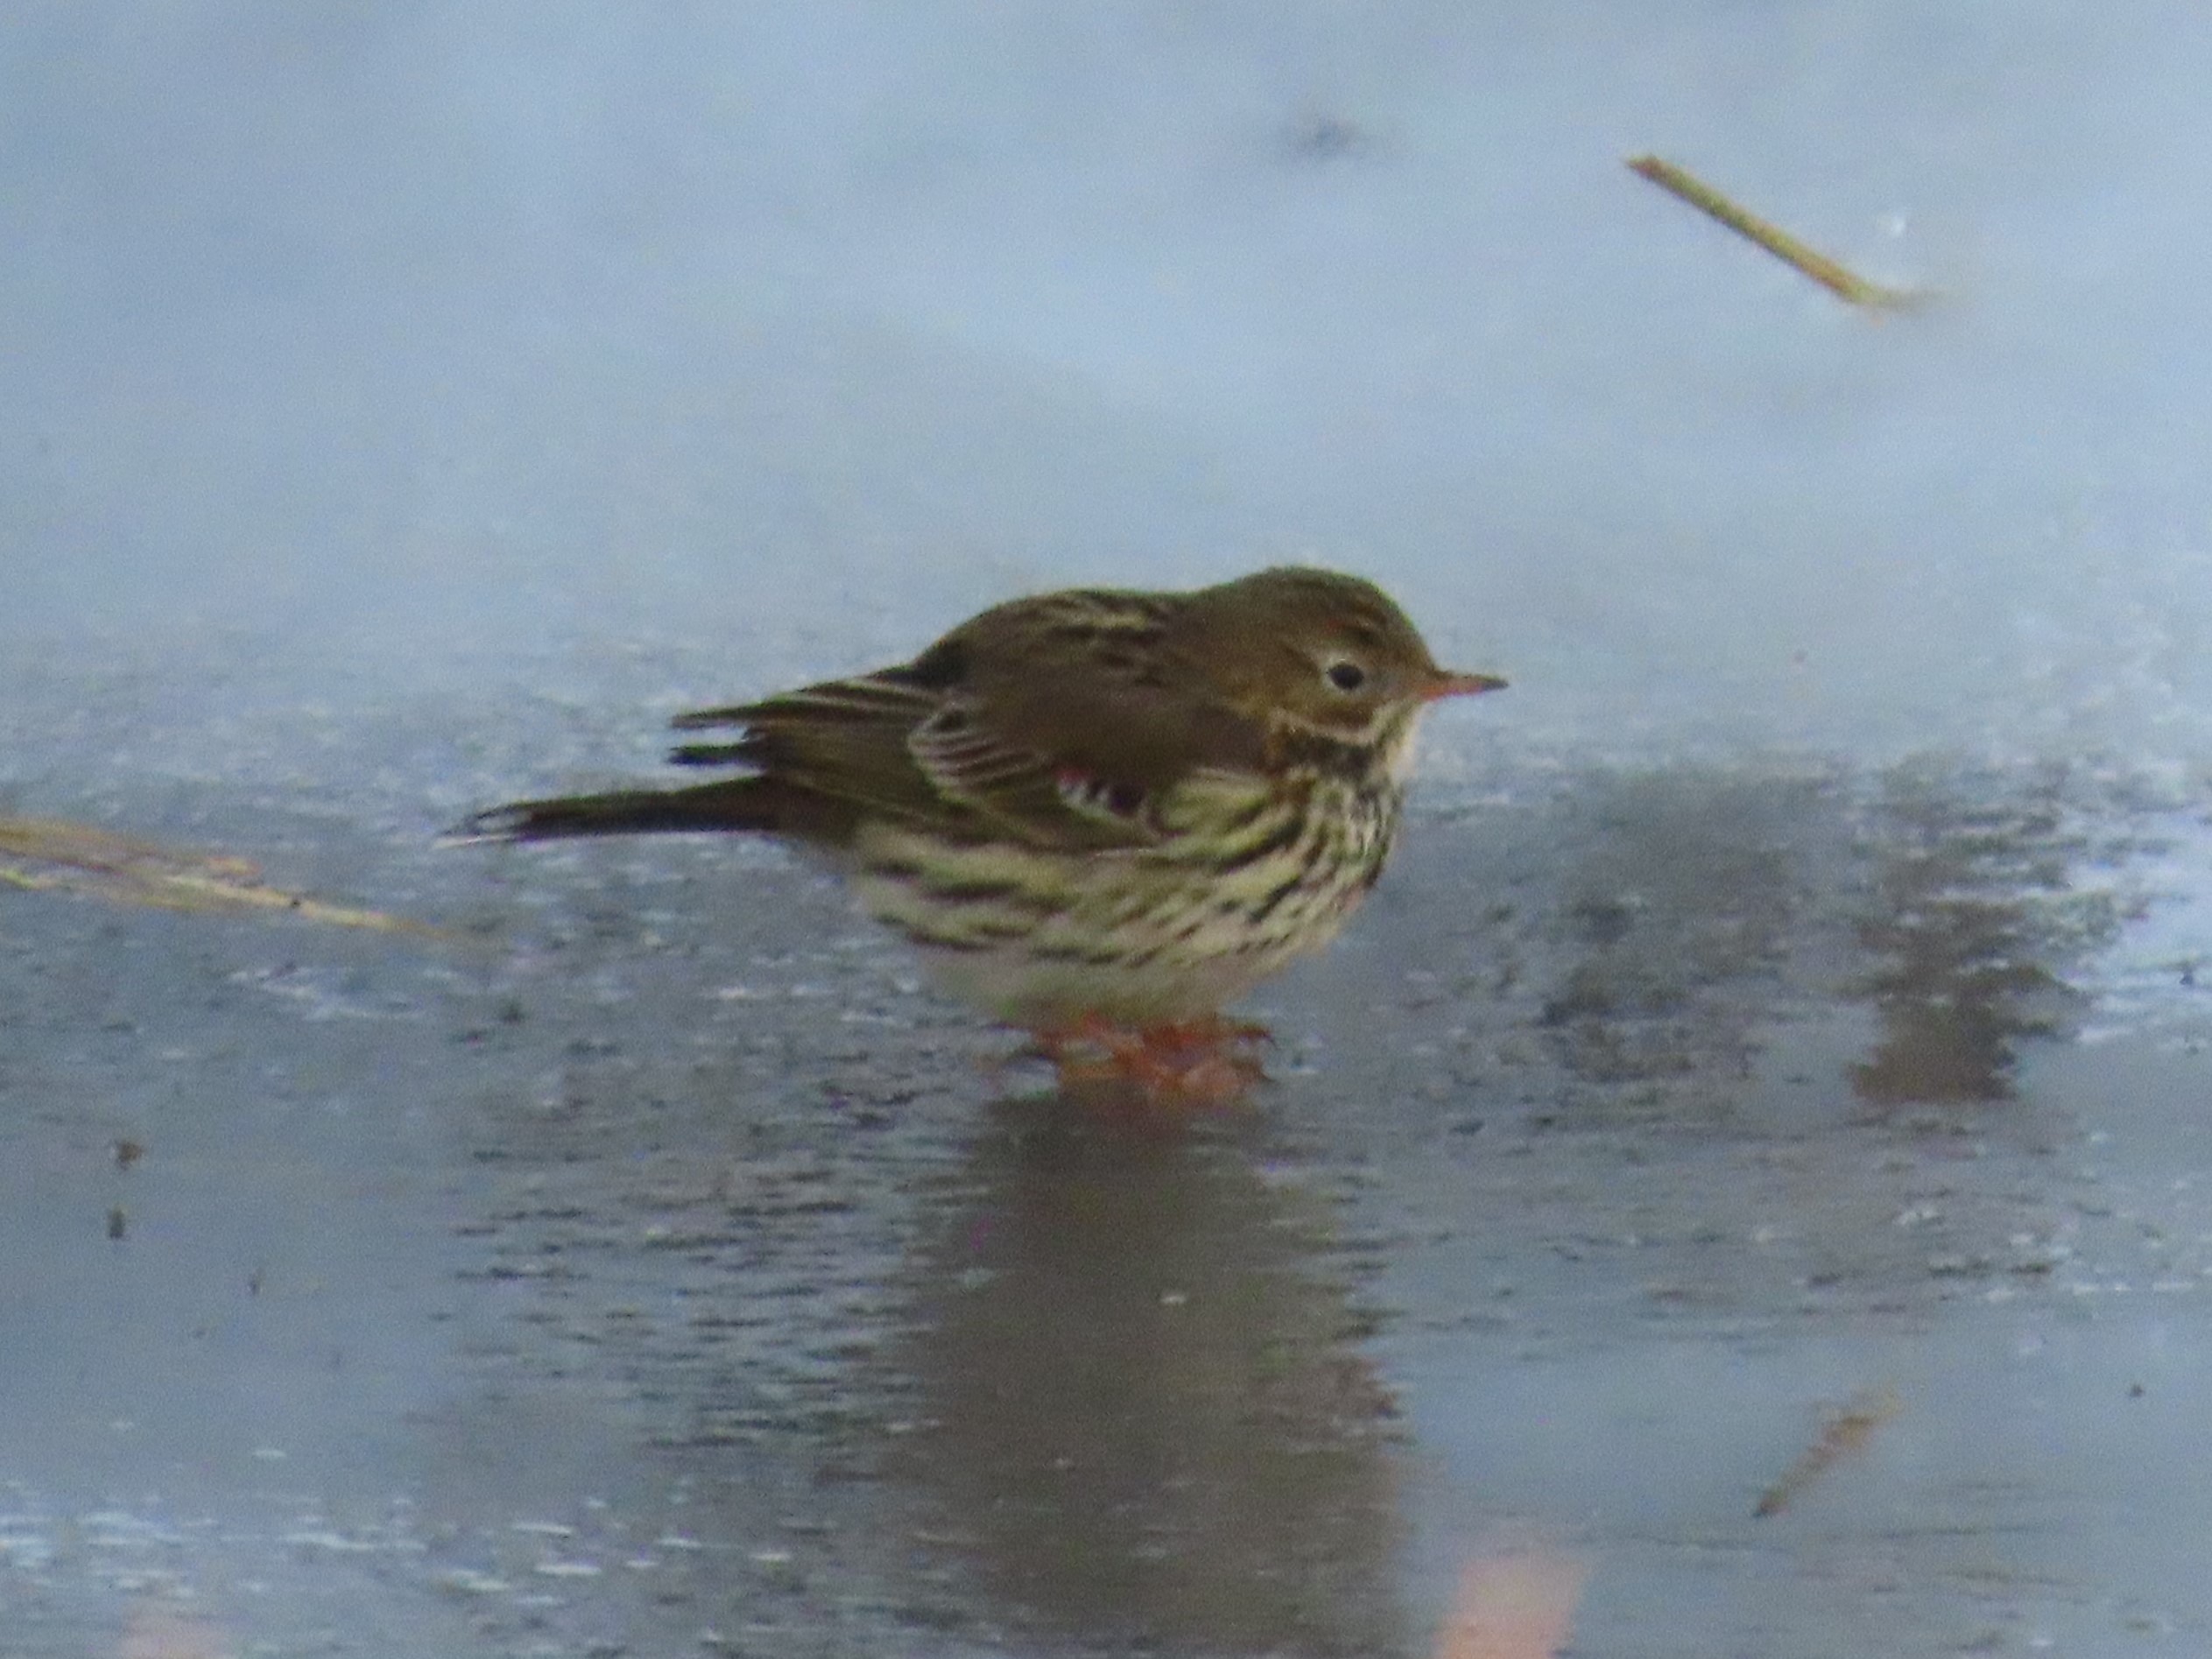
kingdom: Animalia
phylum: Chordata
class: Aves
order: Passeriformes
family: Motacillidae
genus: Anthus
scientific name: Anthus pratensis
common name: Engpiber
